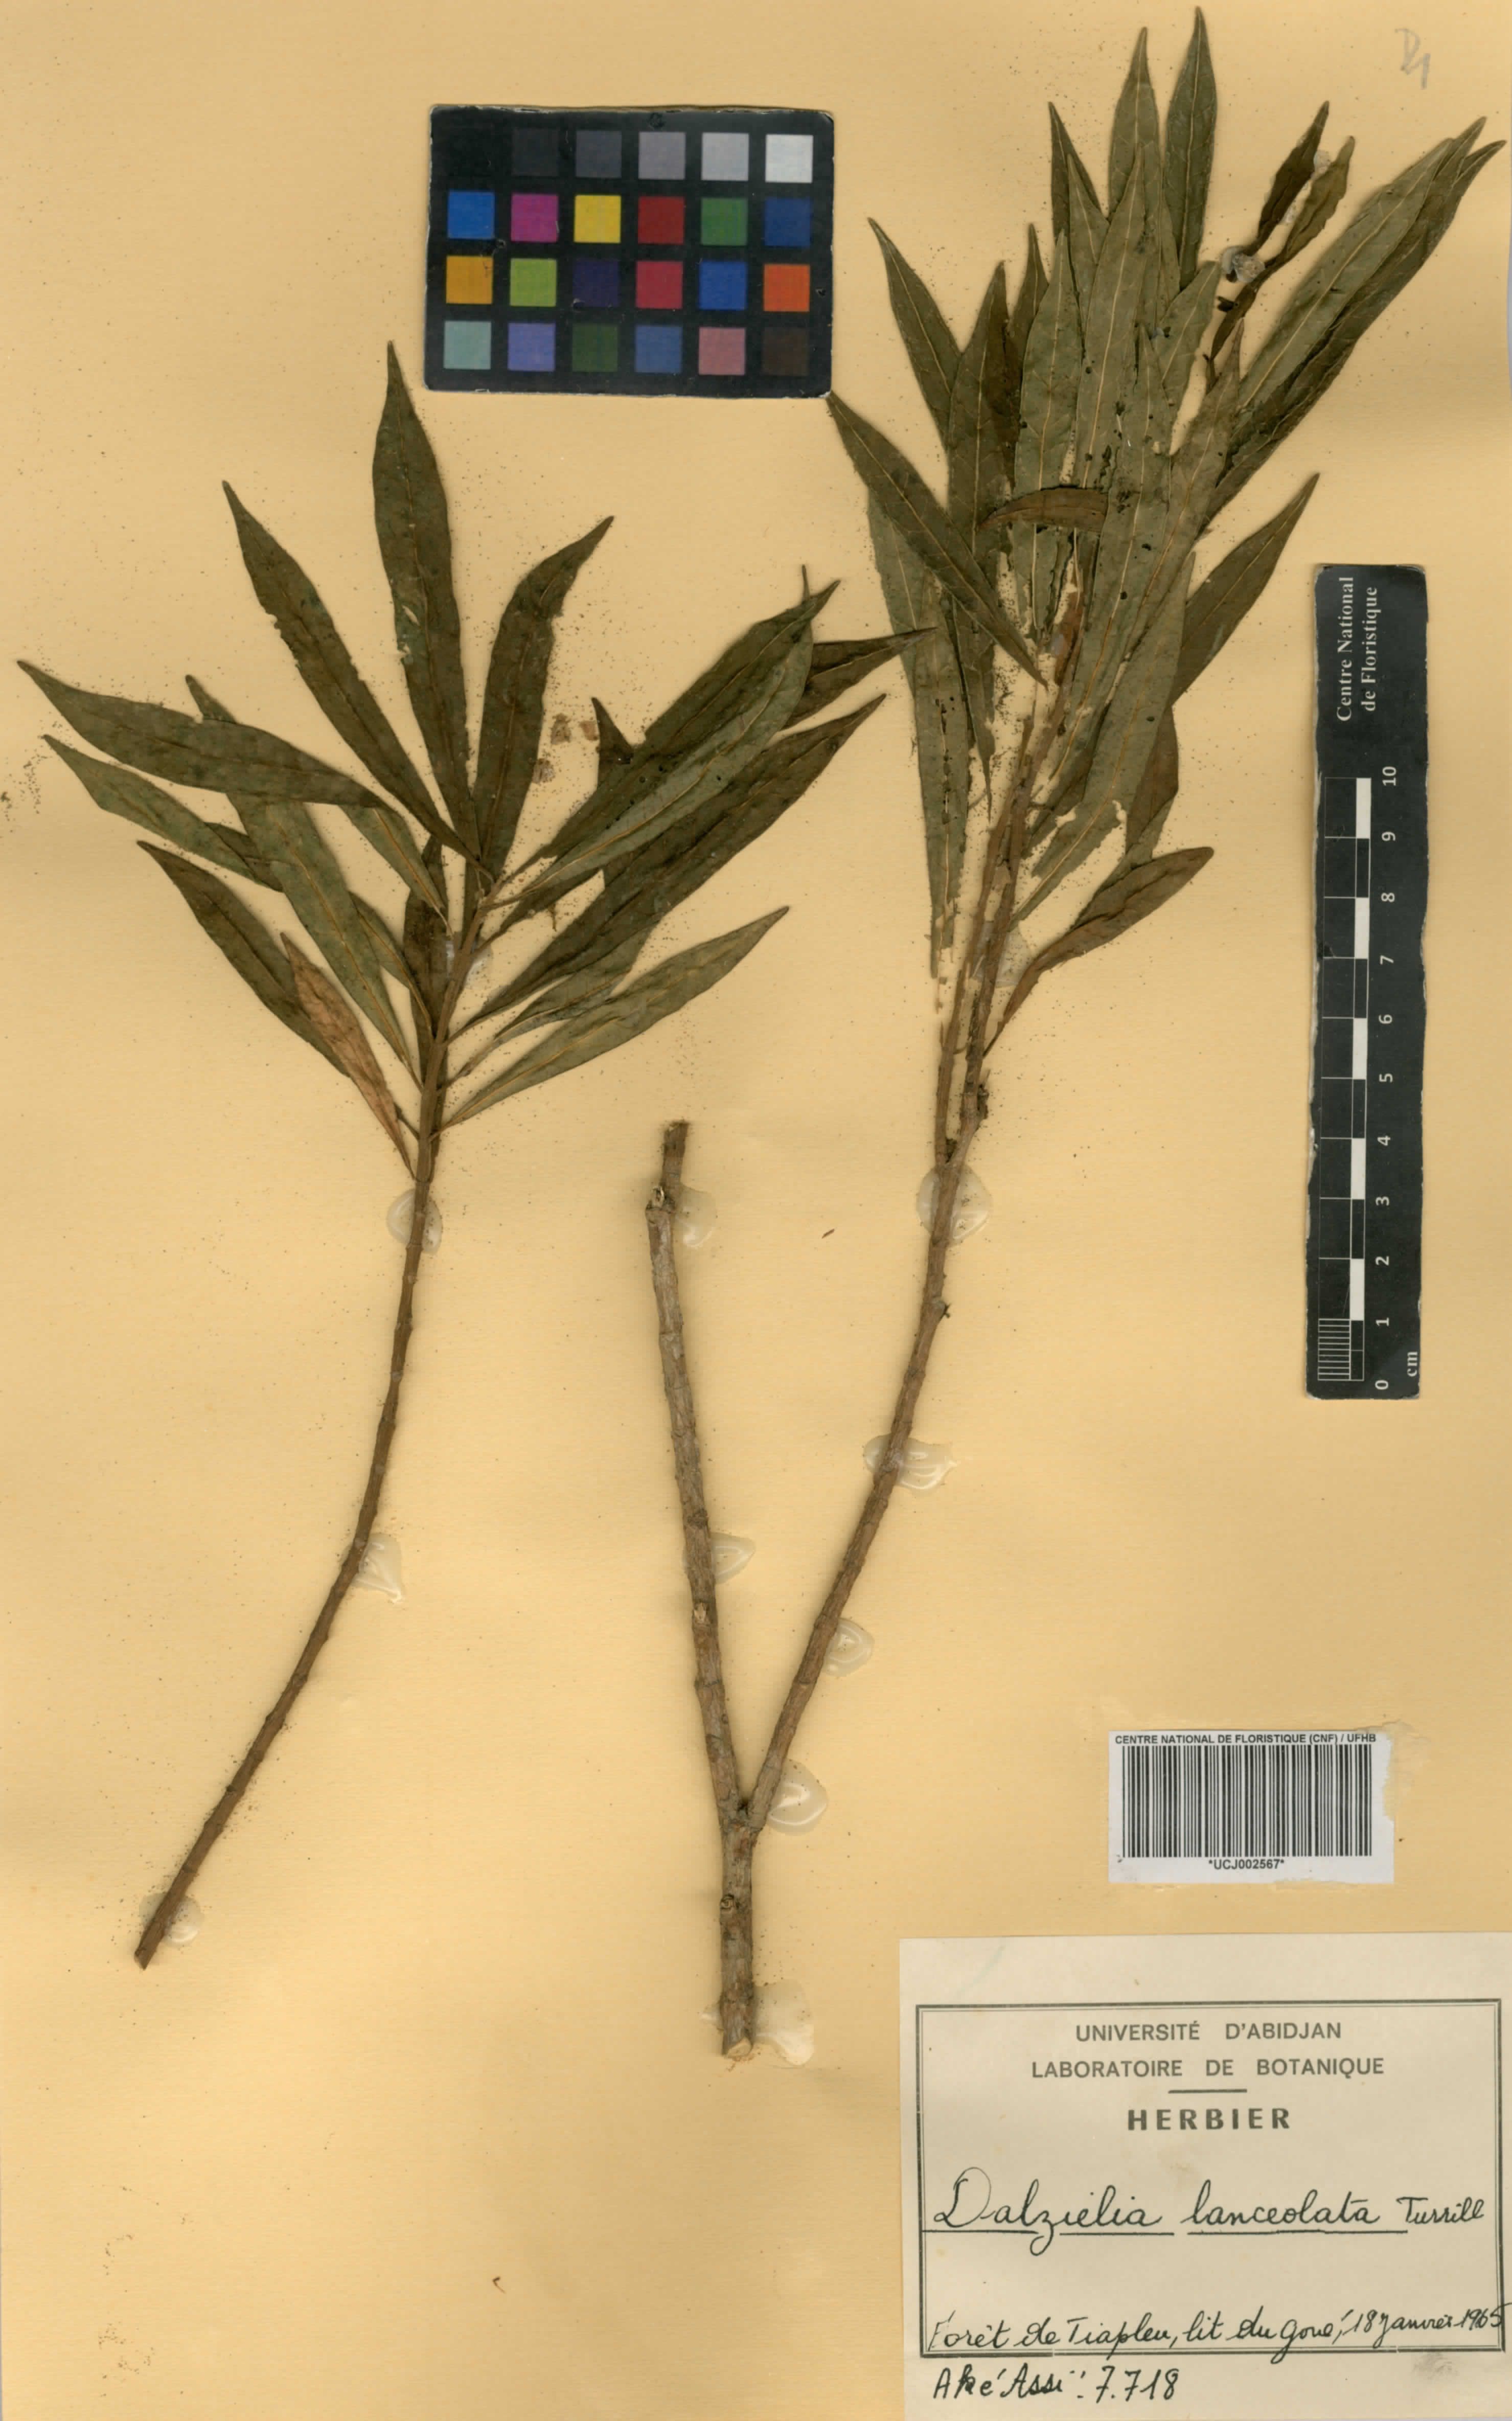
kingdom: Plantae
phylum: Tracheophyta
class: Magnoliopsida
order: Gentianales
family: Apocynaceae
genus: Dalzielia
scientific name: Dalzielia
